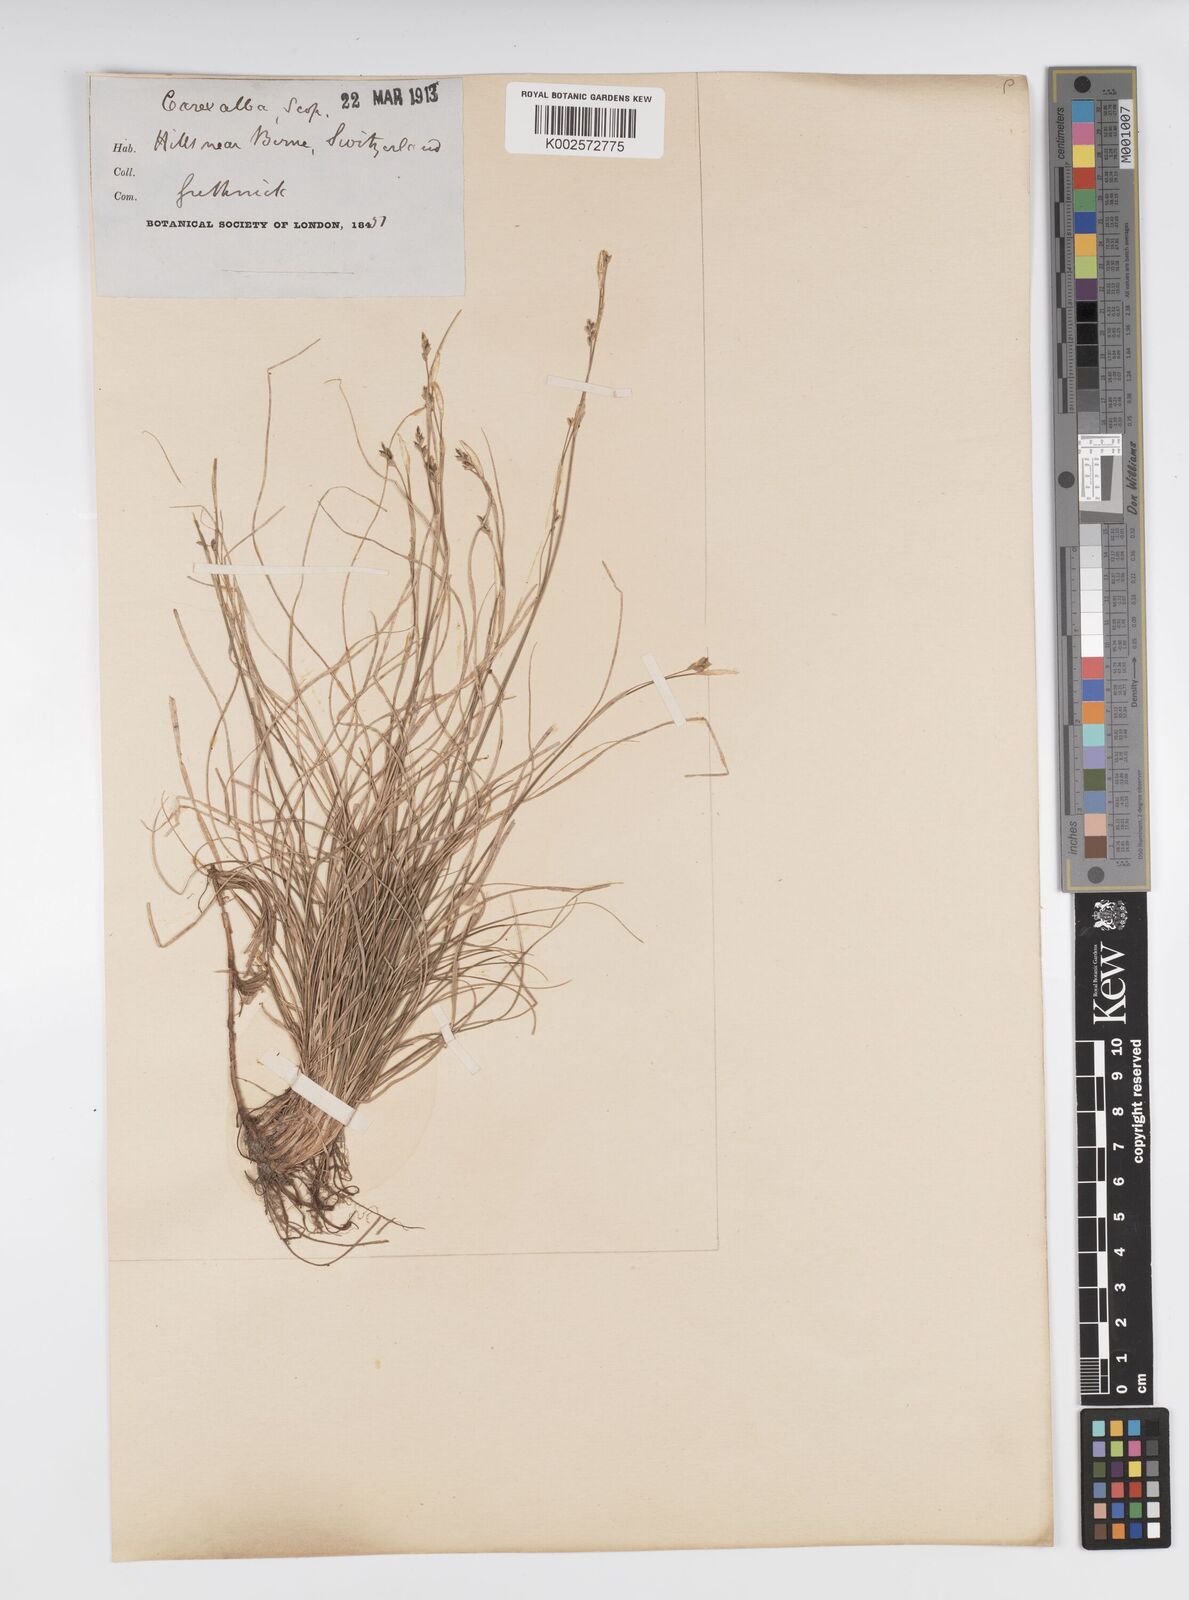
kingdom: Plantae
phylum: Tracheophyta
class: Liliopsida
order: Poales
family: Cyperaceae
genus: Carex
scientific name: Carex alba
